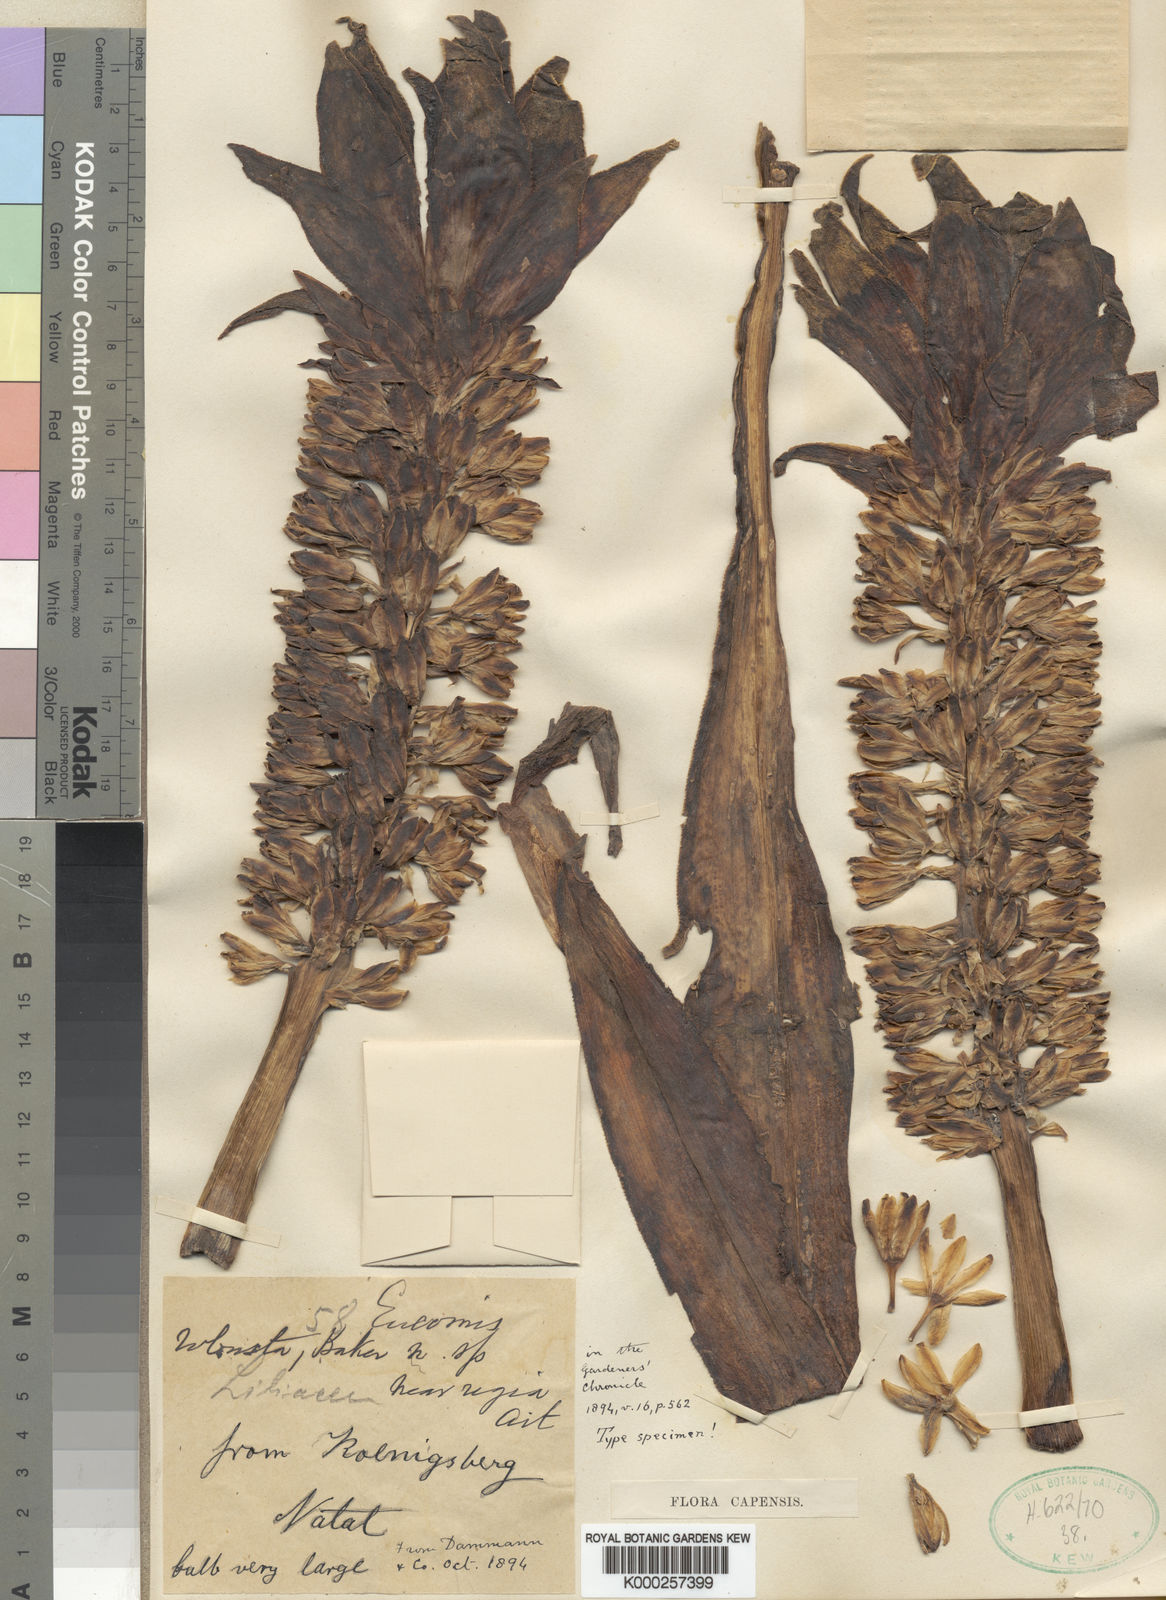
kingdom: Plantae
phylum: Tracheophyta
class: Liliopsida
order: Asparagales
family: Asparagaceae
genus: Eucomis
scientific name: Eucomis autumnalis
